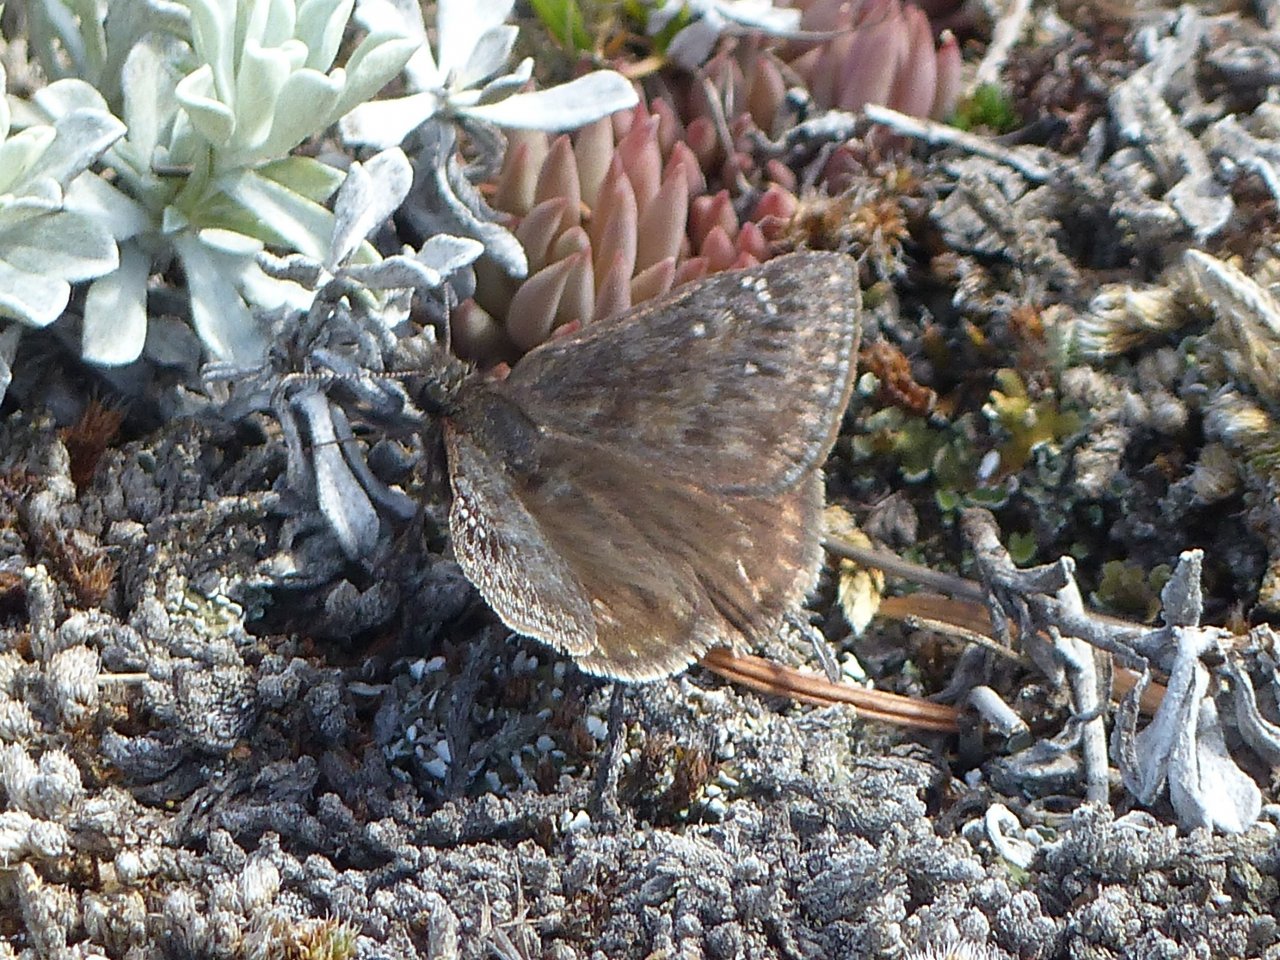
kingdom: Animalia
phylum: Arthropoda
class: Insecta
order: Lepidoptera
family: Hesperiidae
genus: Gesta
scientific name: Gesta
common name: Persius Duskywing
